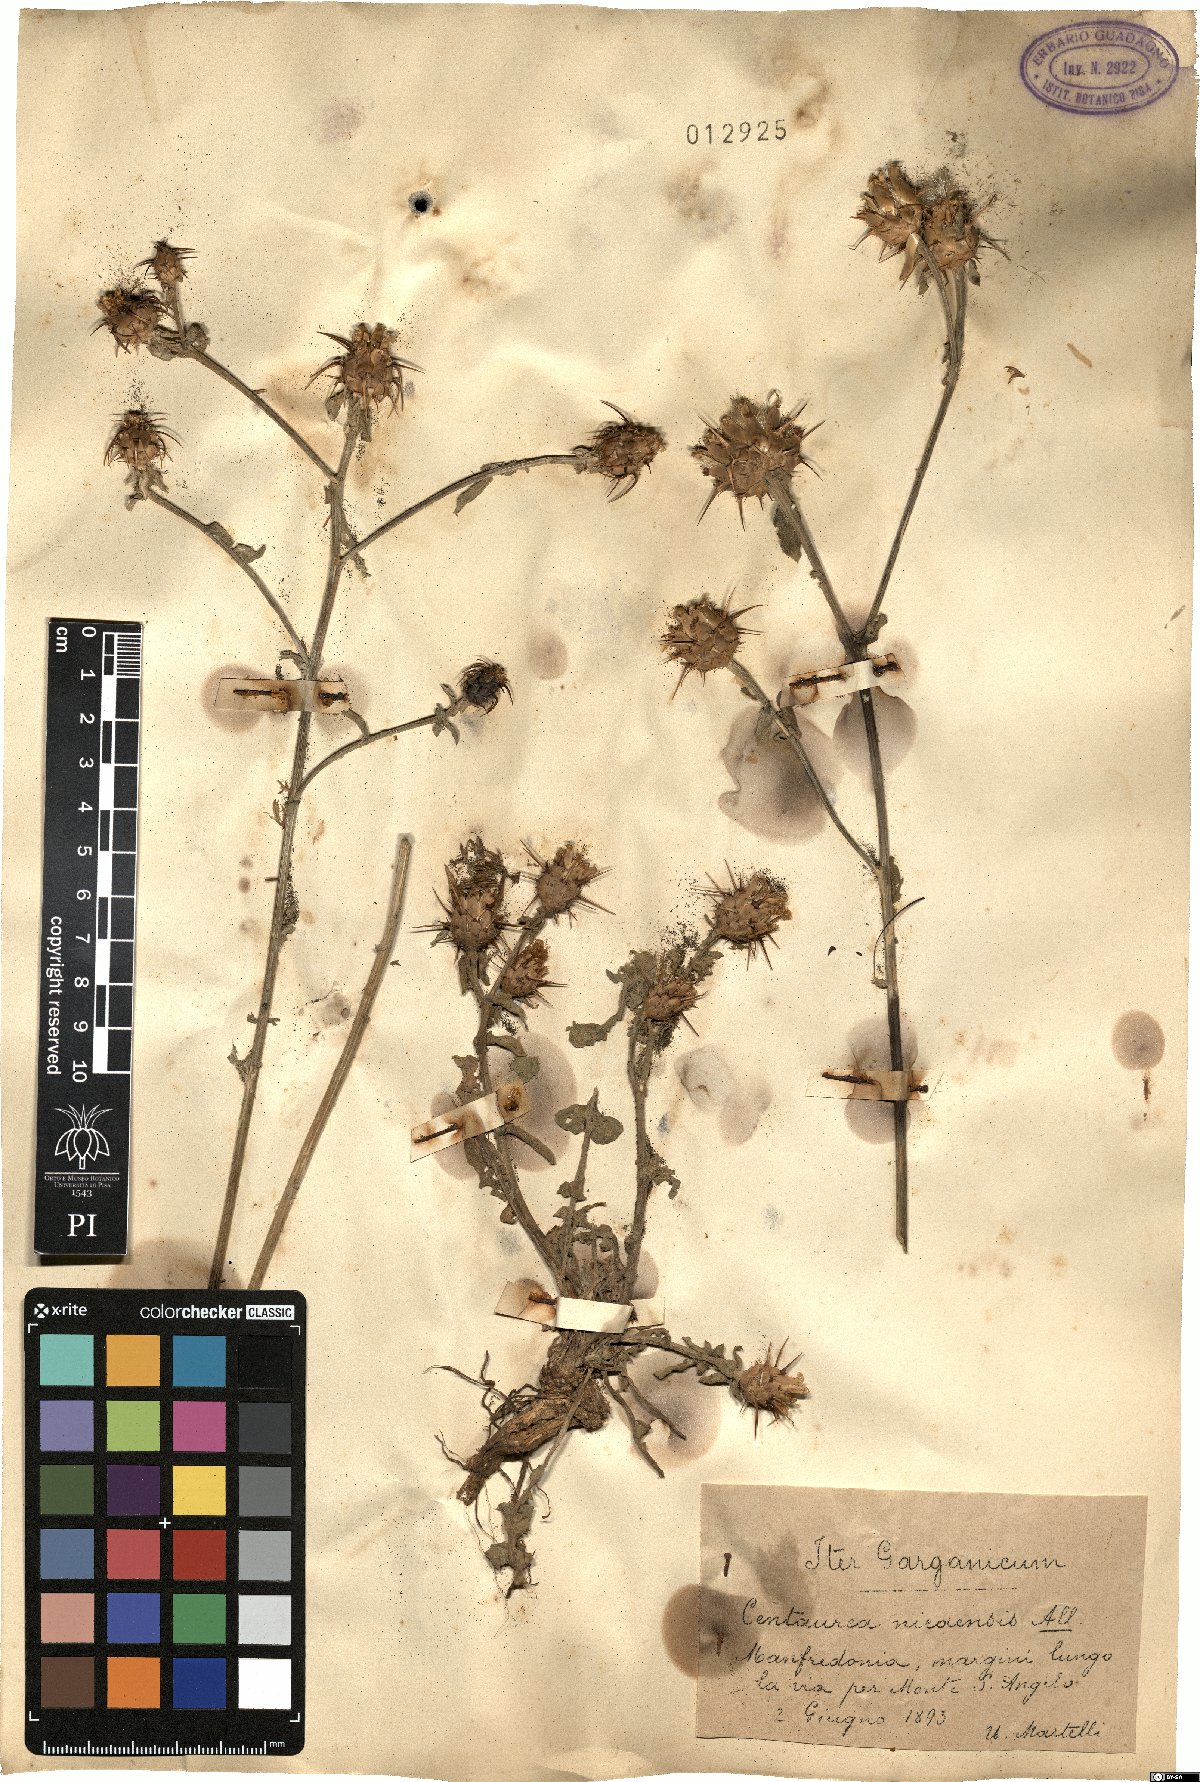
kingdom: Plantae
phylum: Tracheophyta
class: Magnoliopsida
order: Asterales
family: Asteraceae
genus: Centaurea
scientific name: Centaurea sicula
